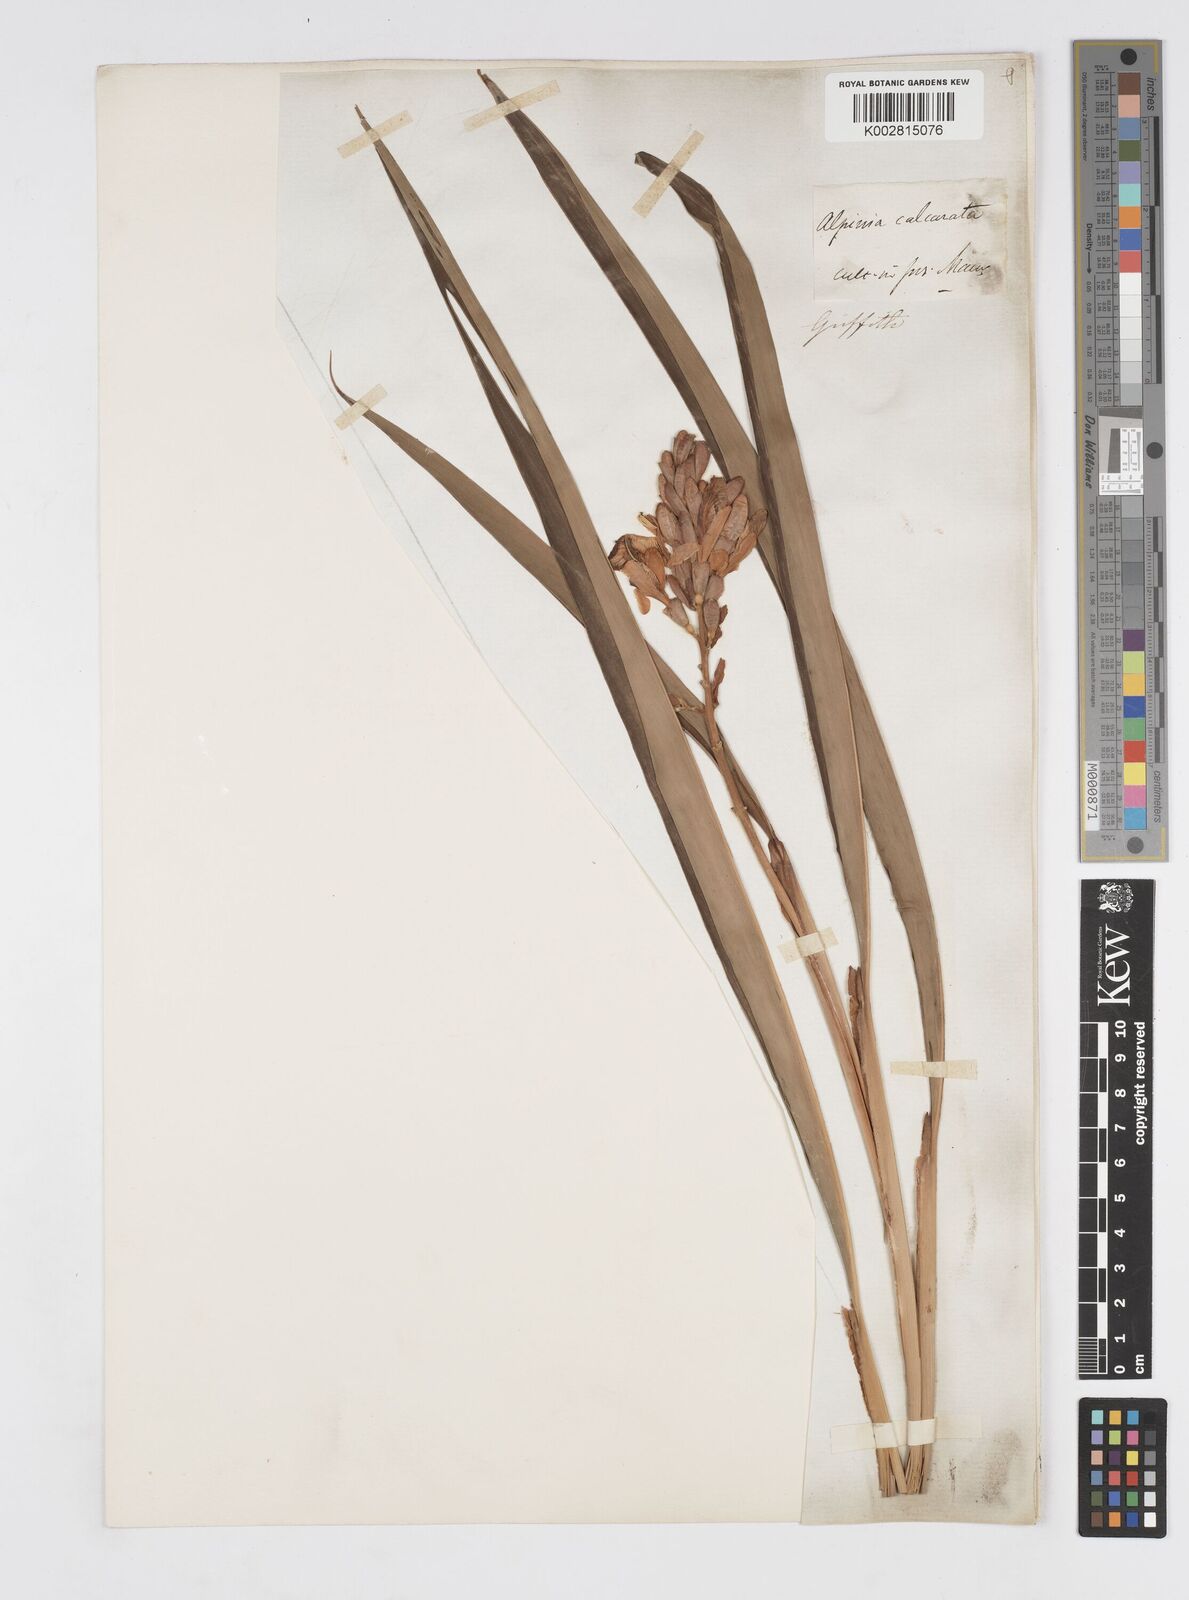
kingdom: Plantae
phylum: Tracheophyta
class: Liliopsida
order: Zingiberales
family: Zingiberaceae
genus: Alpinia
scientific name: Alpinia calcarata
